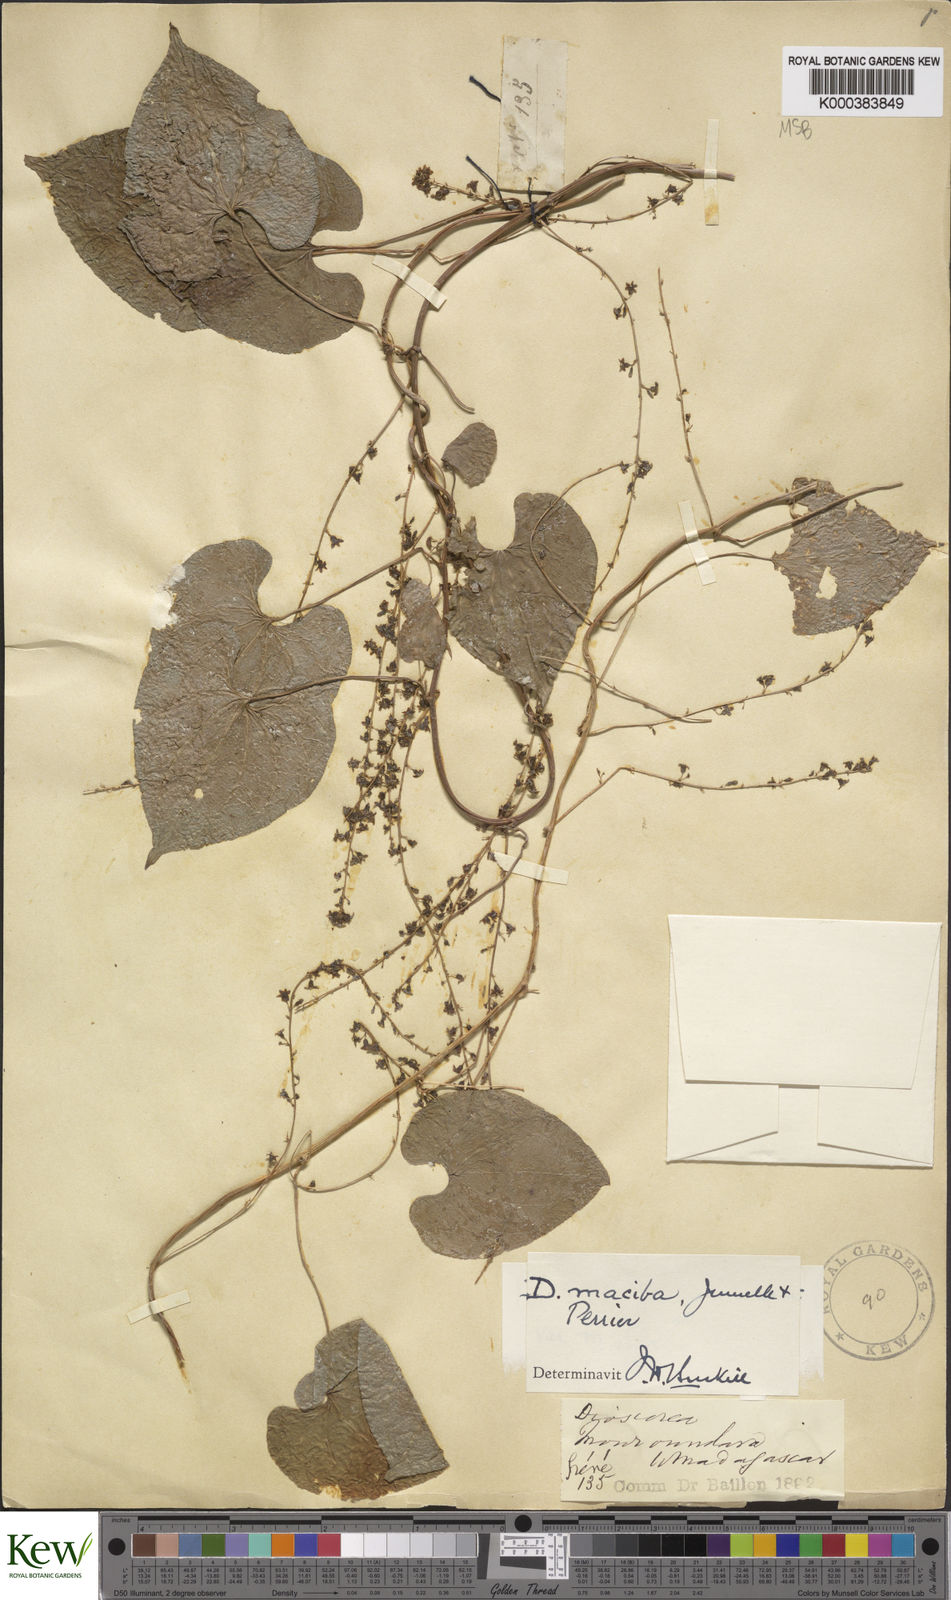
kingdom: Plantae
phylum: Tracheophyta
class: Liliopsida
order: Dioscoreales
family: Dioscoreaceae
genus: Dioscorea
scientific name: Dioscorea
